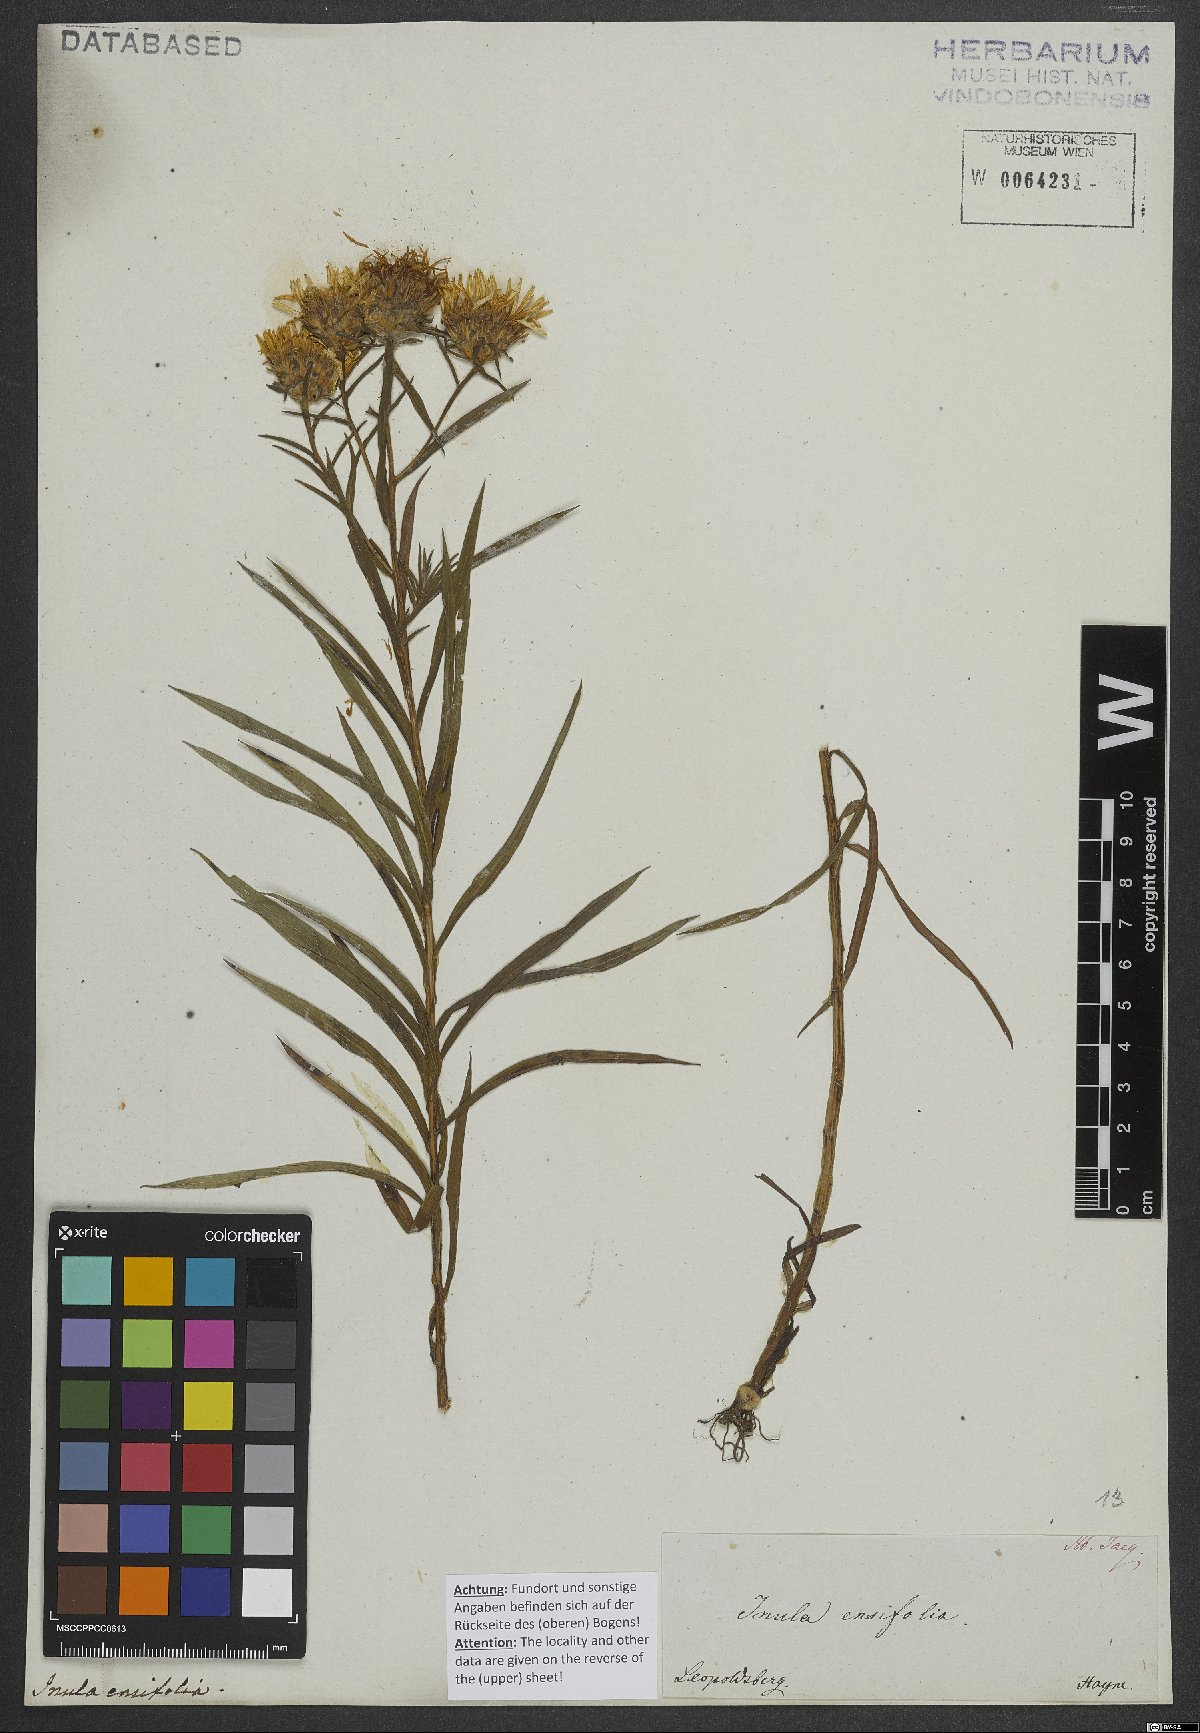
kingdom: Plantae
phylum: Tracheophyta
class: Magnoliopsida
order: Asterales
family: Asteraceae
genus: Pentanema
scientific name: Pentanema ensifolium
